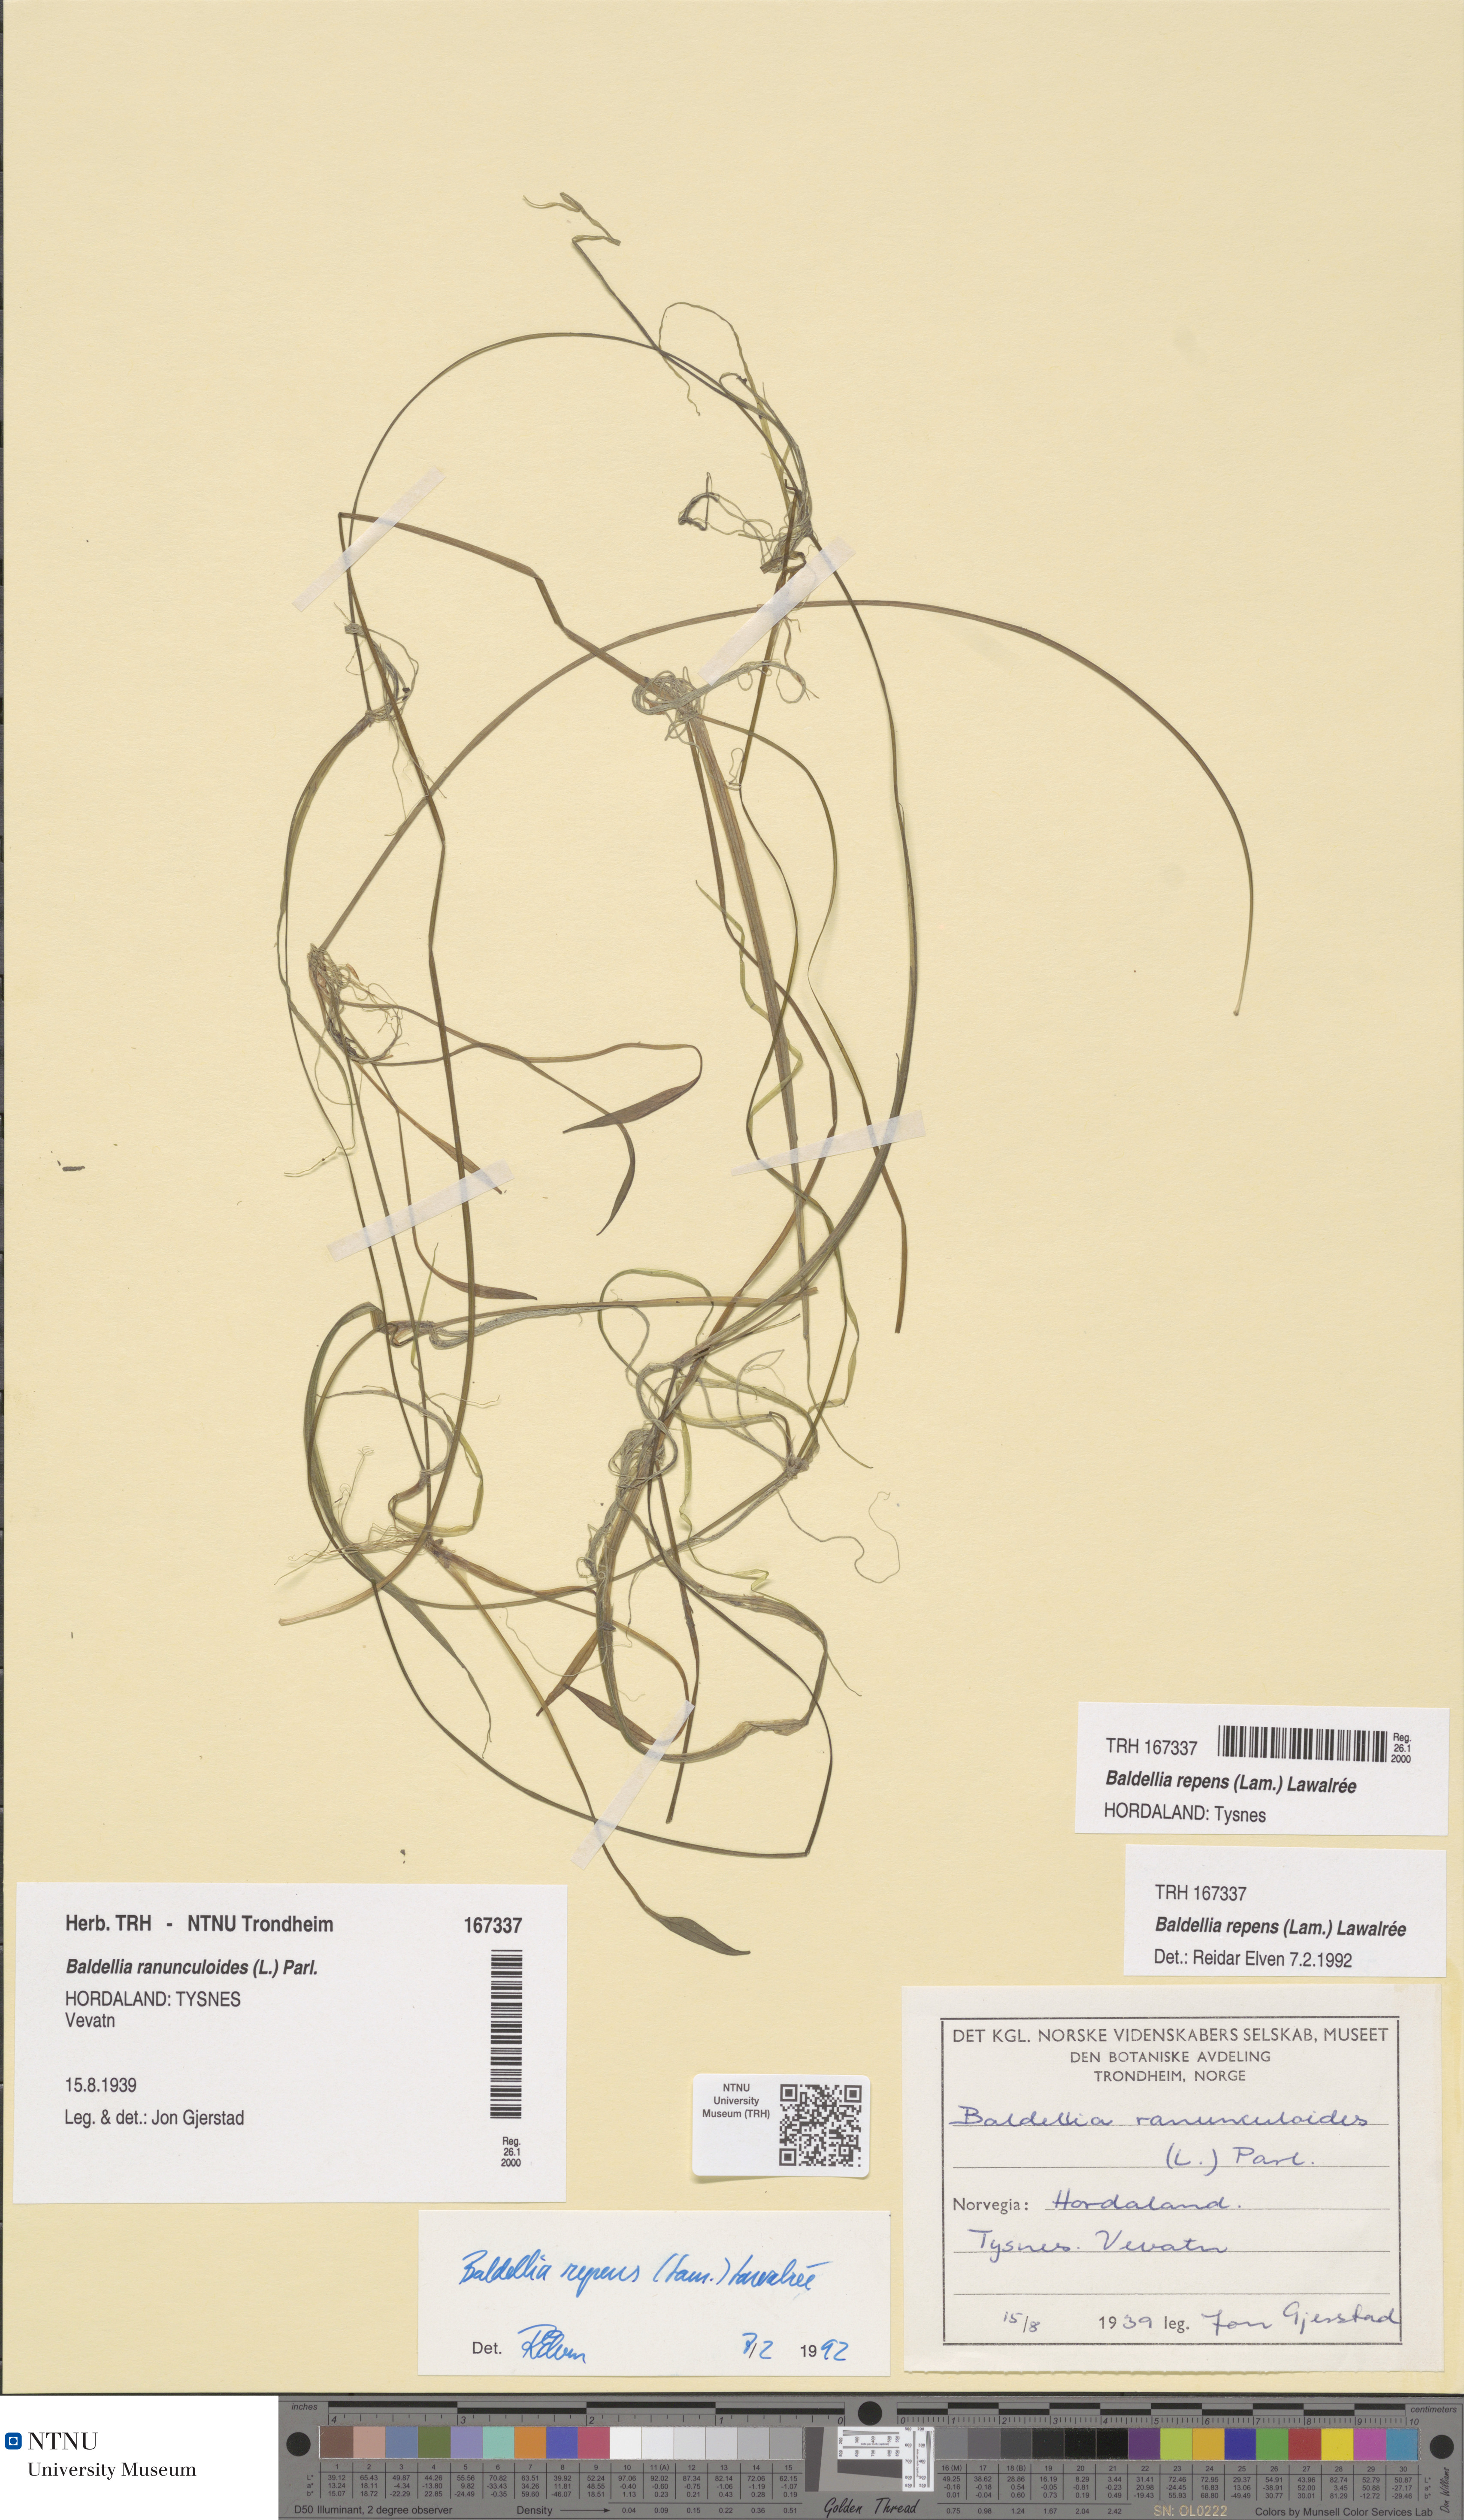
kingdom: Plantae
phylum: Tracheophyta
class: Liliopsida
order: Alismatales
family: Alismataceae
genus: Baldellia
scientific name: Baldellia repens
